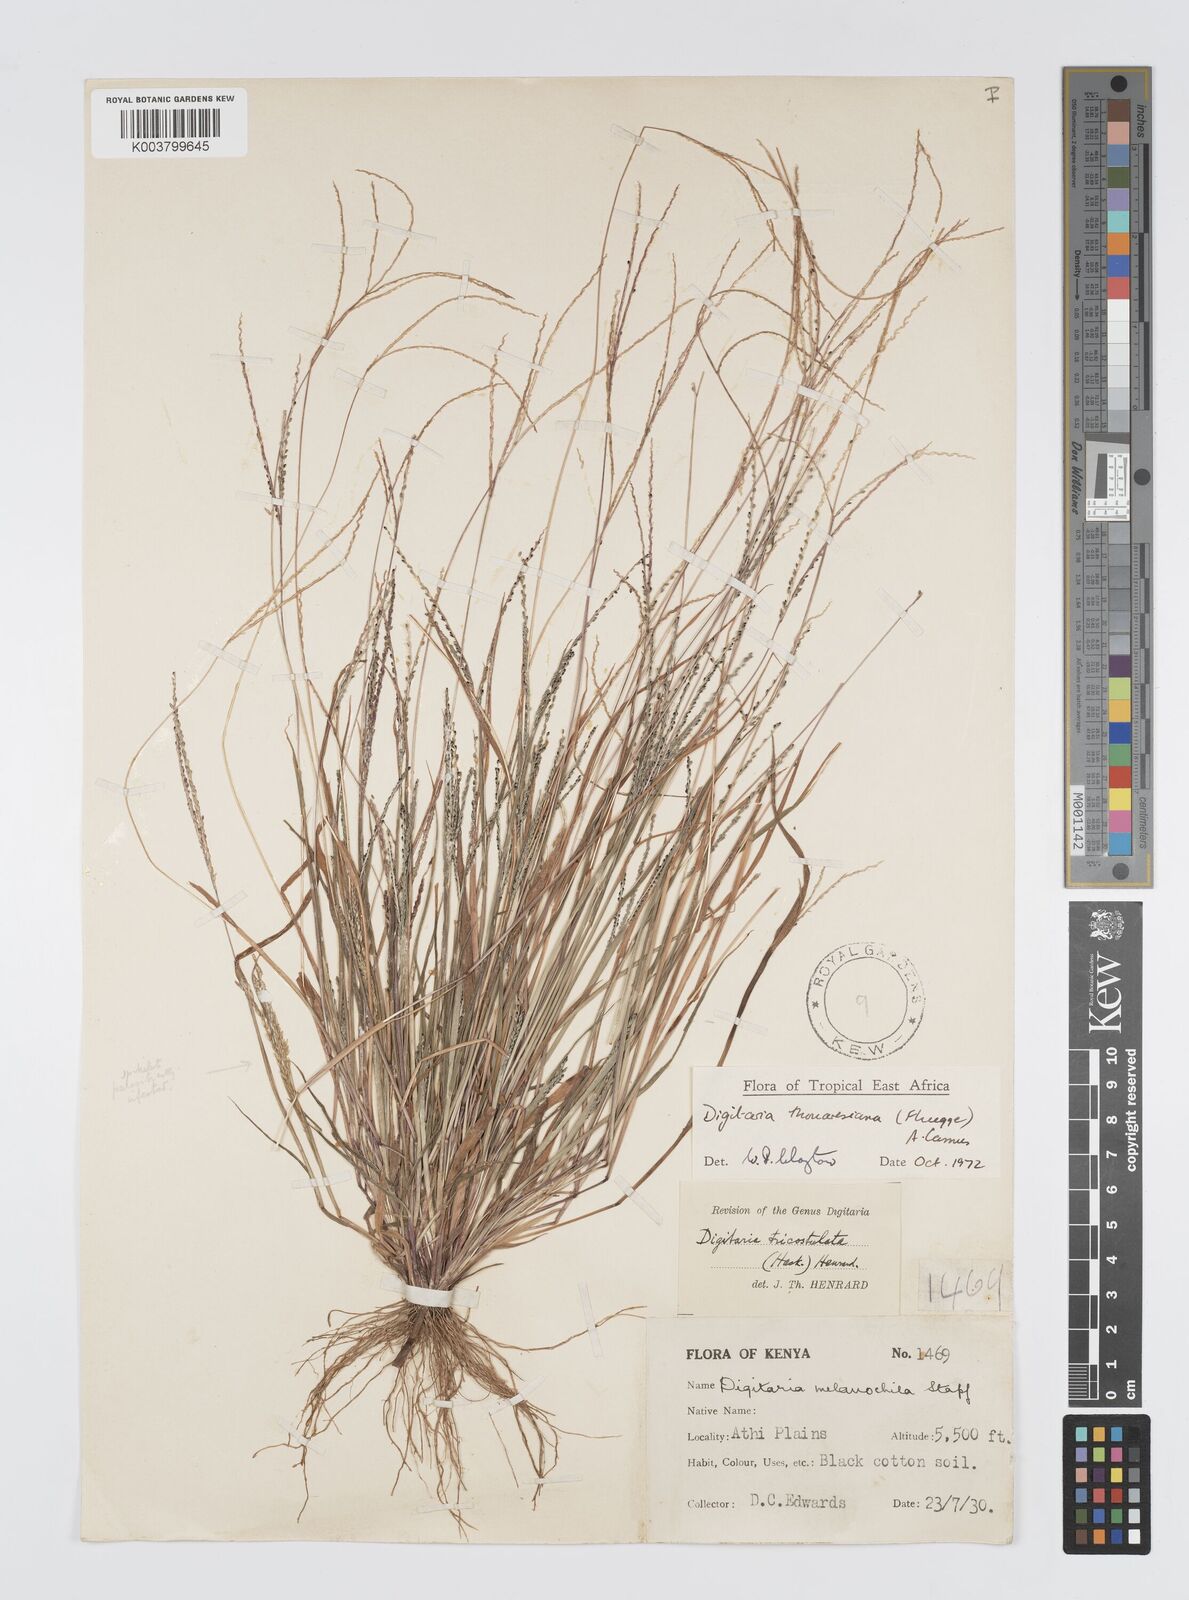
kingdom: Plantae
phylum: Tracheophyta
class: Liliopsida
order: Poales
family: Poaceae
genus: Digitaria
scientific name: Digitaria thouarsiana
